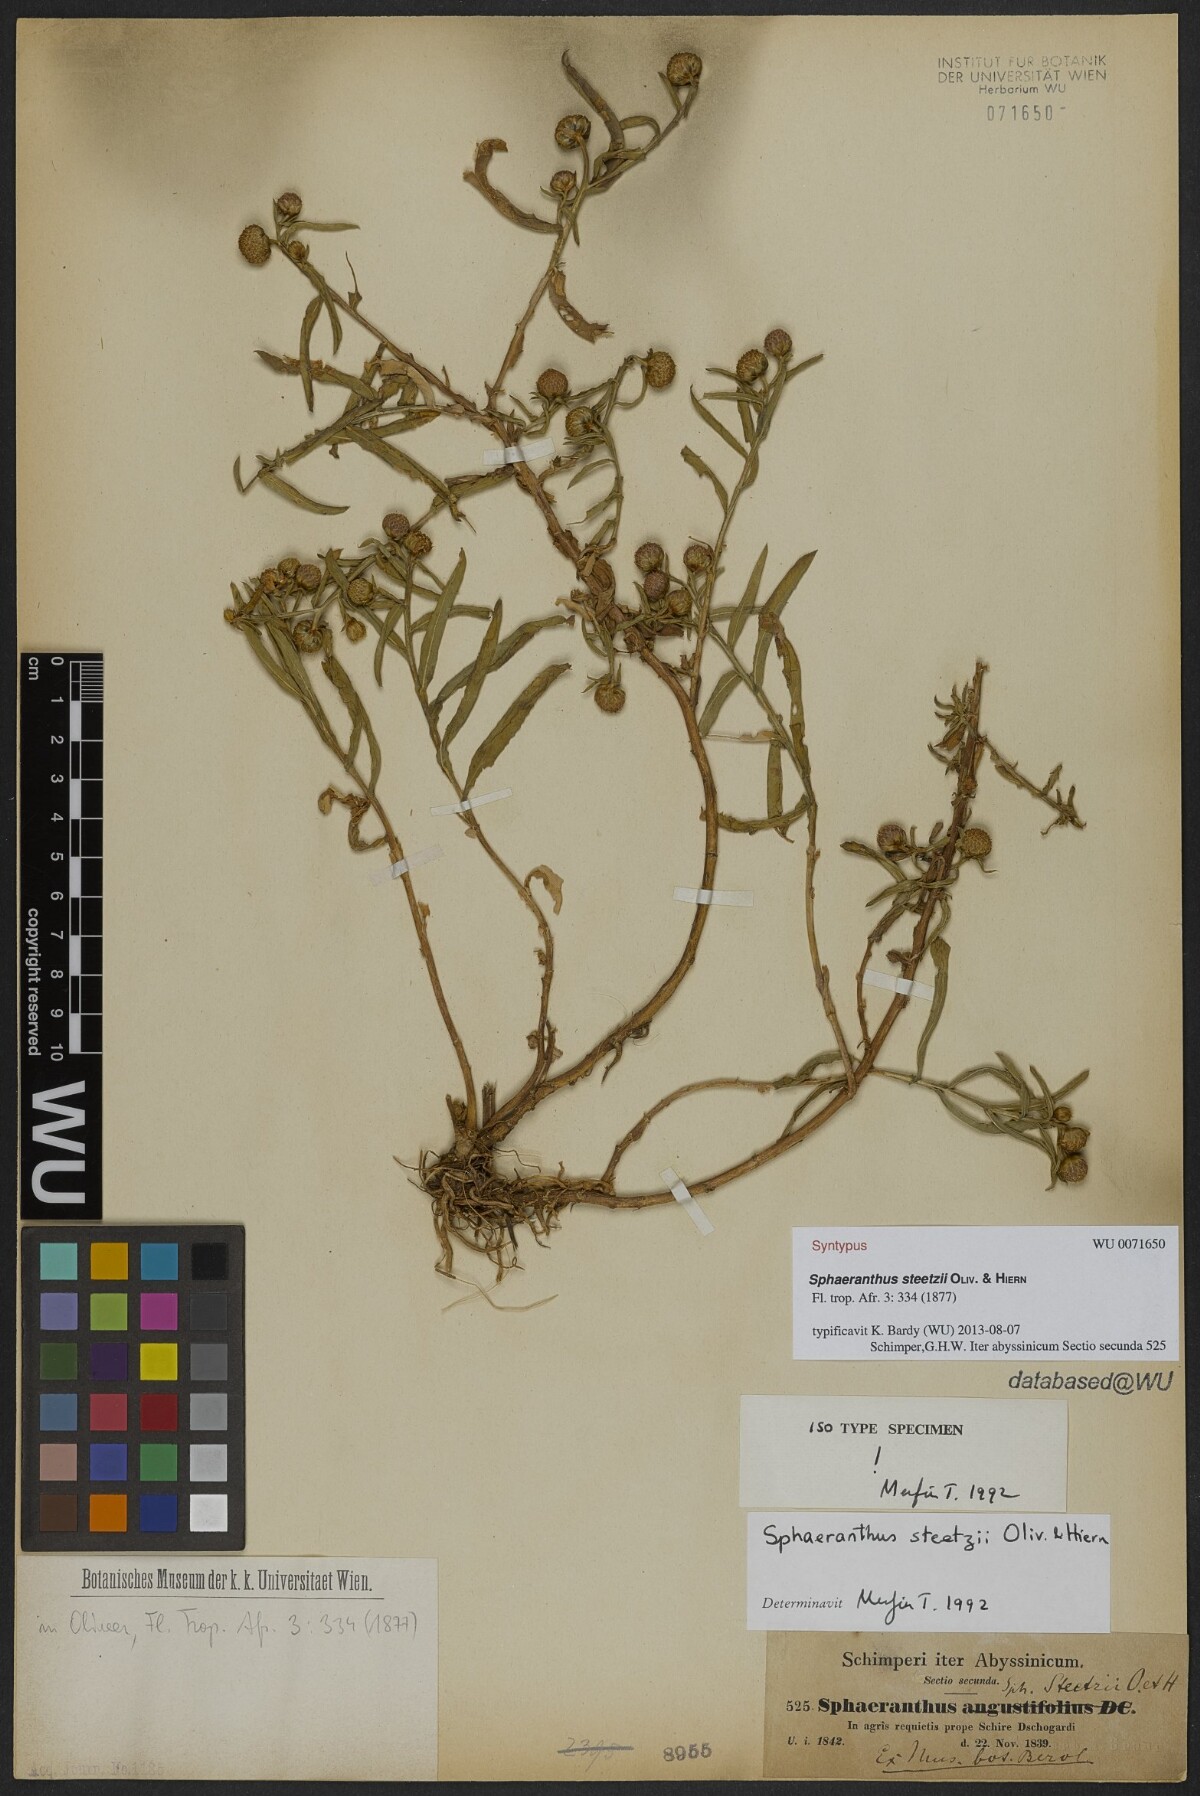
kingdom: Plantae
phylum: Tracheophyta
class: Magnoliopsida
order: Asterales
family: Asteraceae
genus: Sphaeranthus
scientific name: Sphaeranthus steetzii
